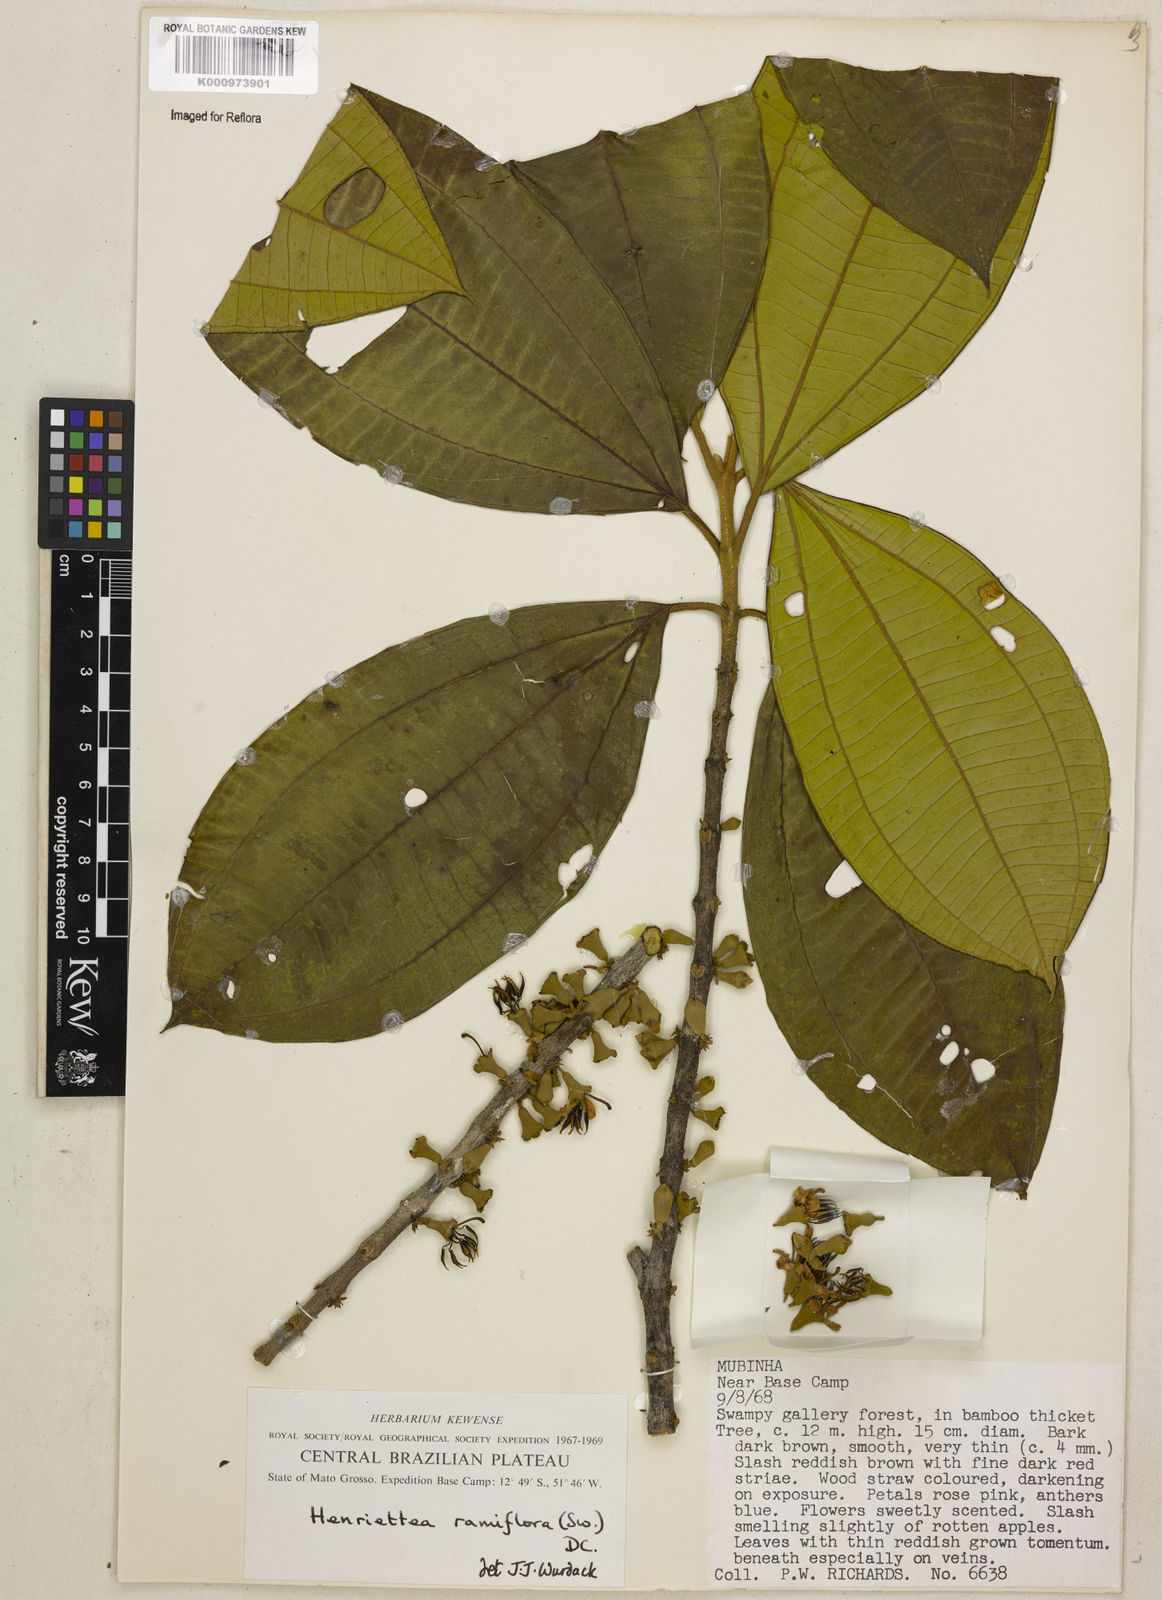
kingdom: Plantae
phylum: Tracheophyta
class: Magnoliopsida
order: Myrtales
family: Melastomataceae
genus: Henriettea
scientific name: Henriettea ramiflora
